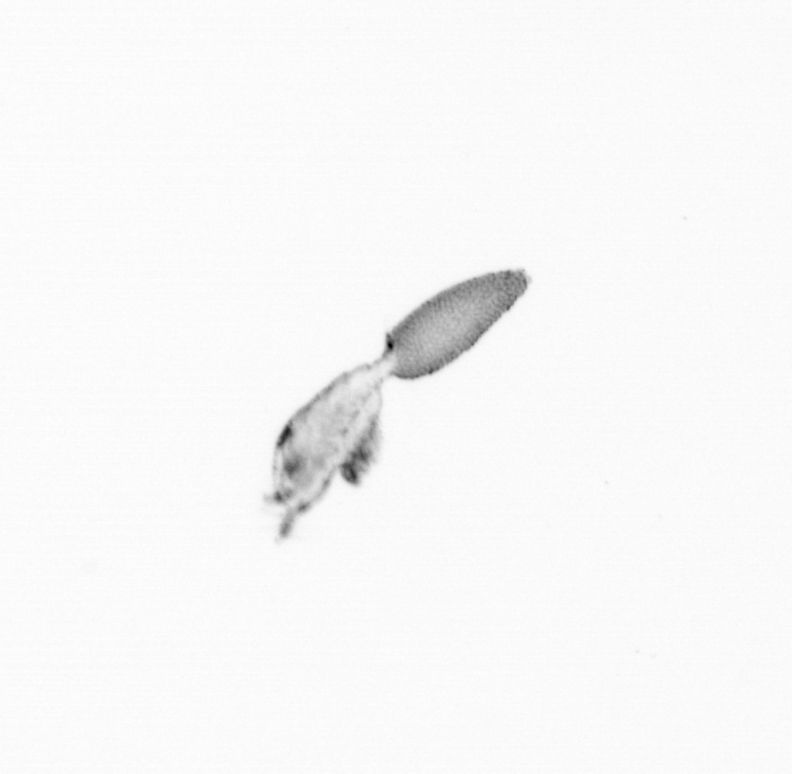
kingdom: Animalia
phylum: Arthropoda
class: Copepoda
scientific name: Copepoda
